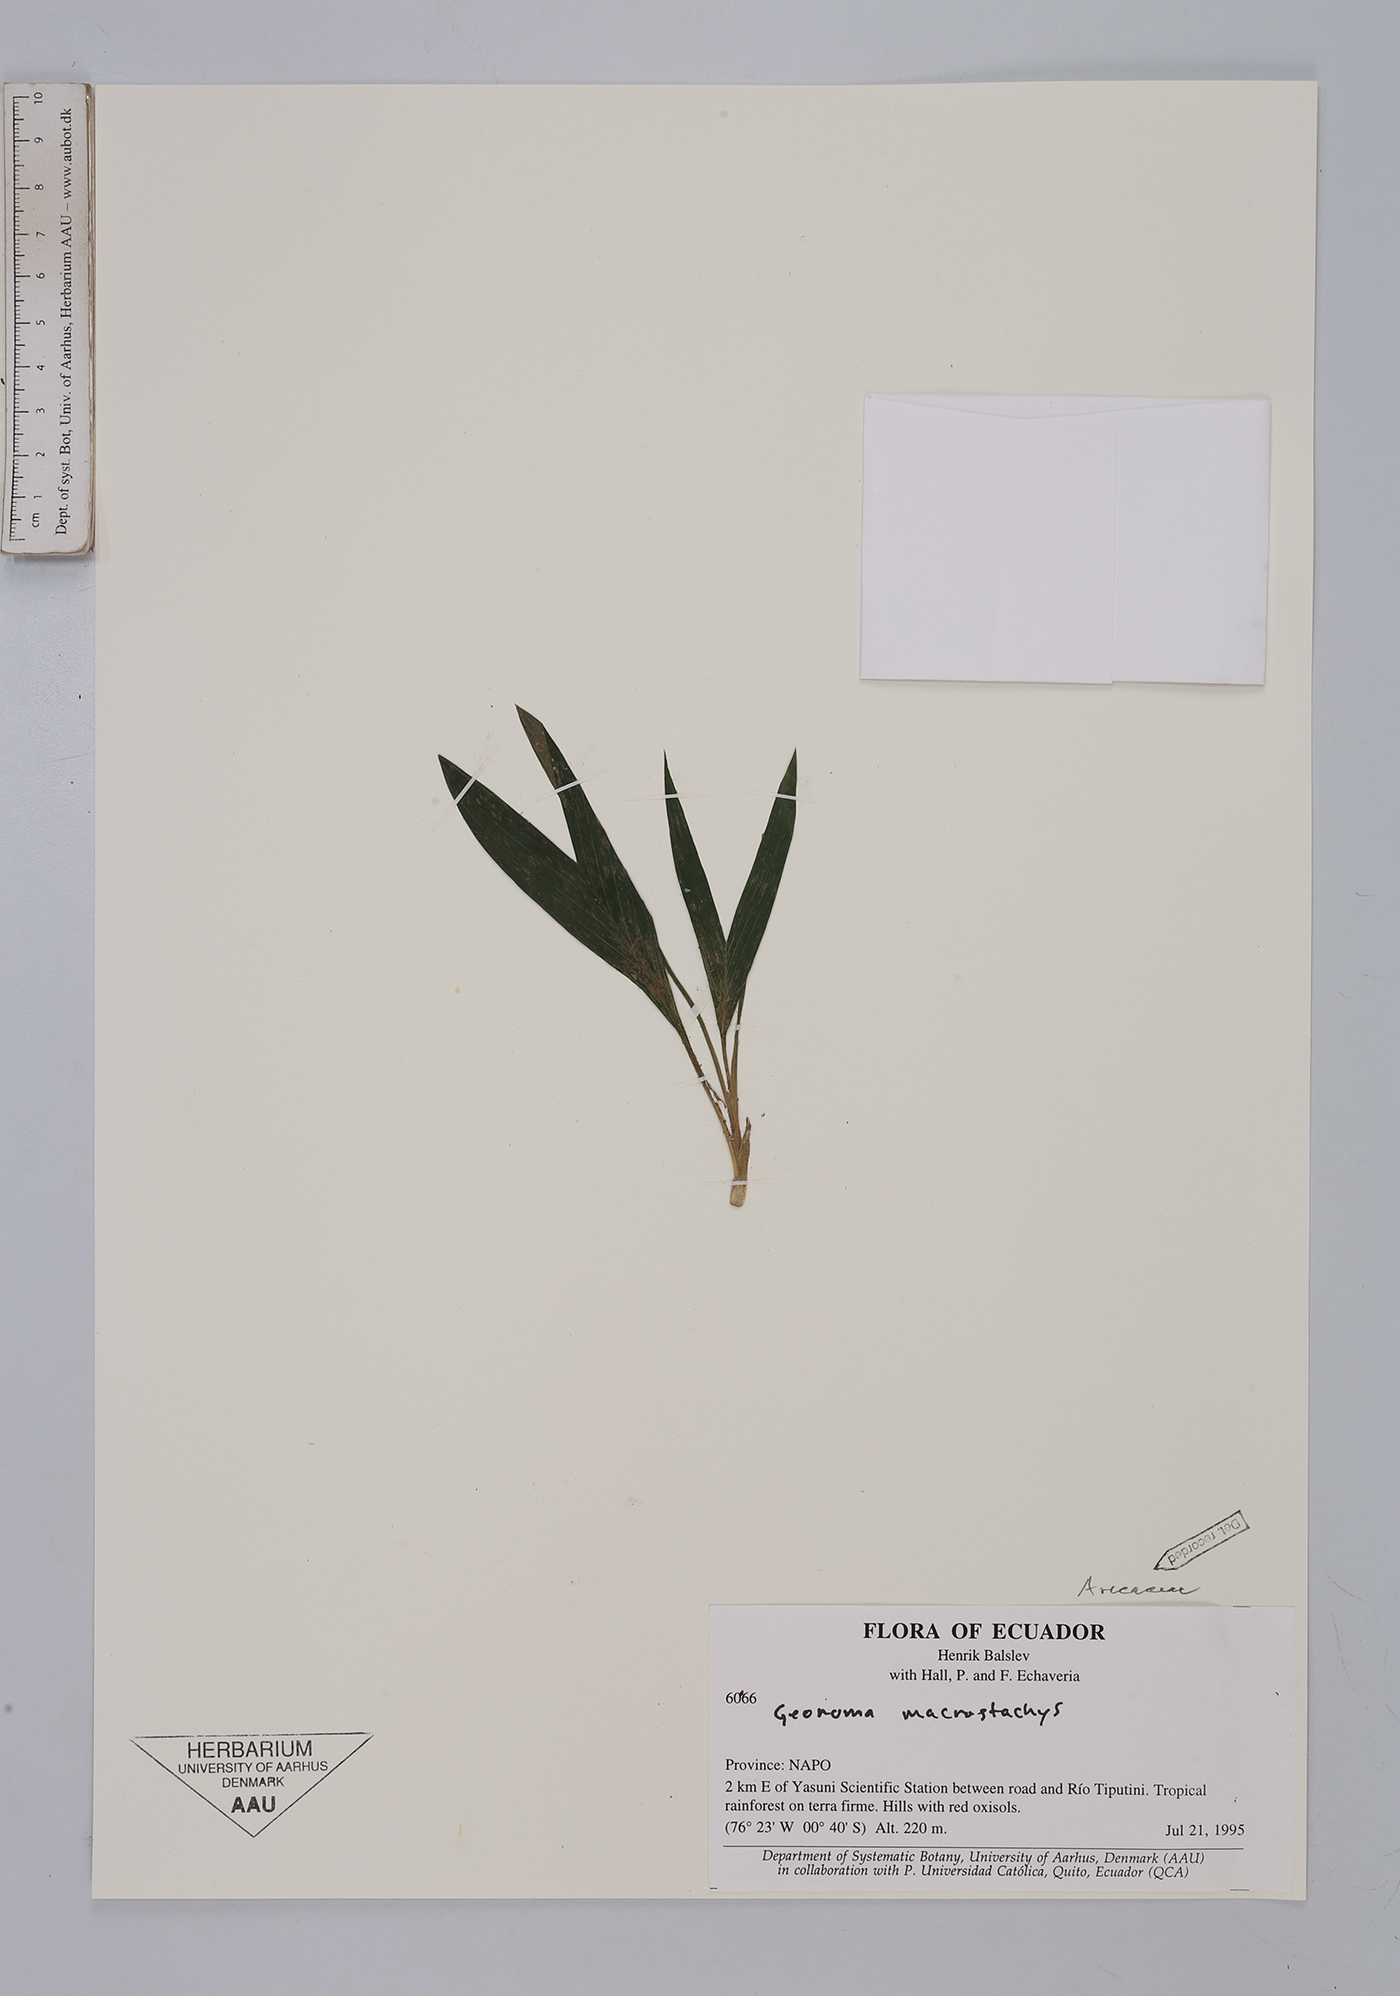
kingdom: Plantae
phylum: Tracheophyta
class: Liliopsida
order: Arecales
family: Arecaceae
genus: Geonoma
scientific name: Geonoma macrostachys
